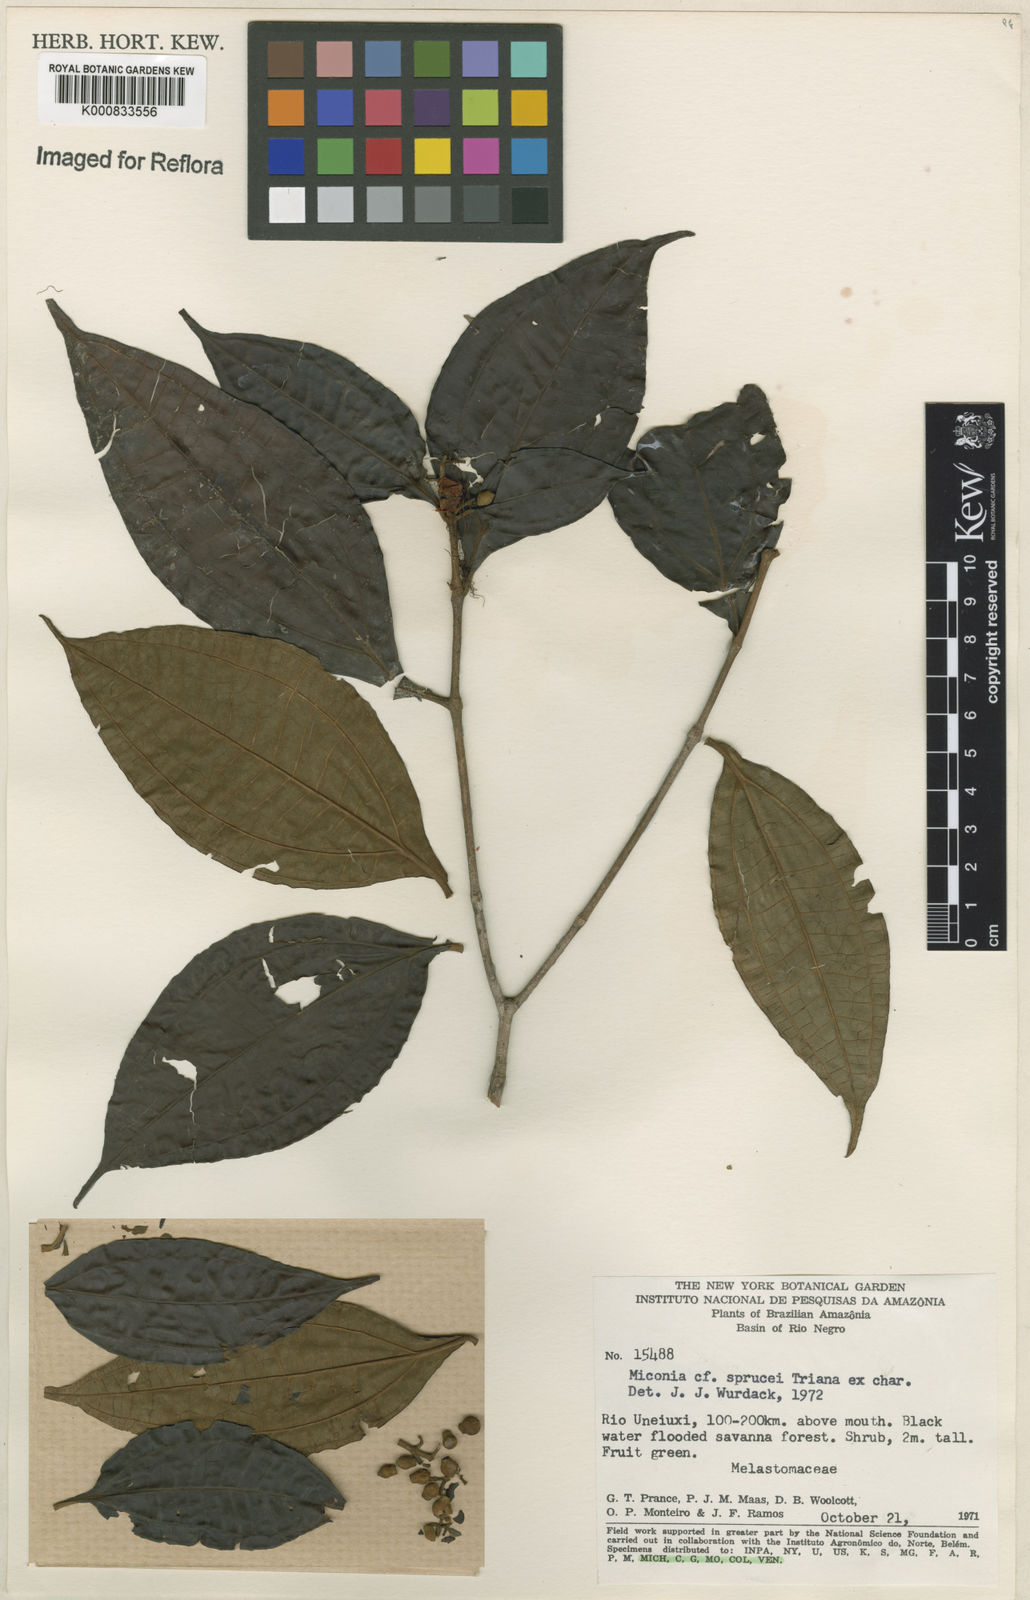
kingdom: Plantae
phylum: Tracheophyta
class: Magnoliopsida
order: Myrtales
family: Melastomataceae
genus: Miconia
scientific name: Miconia sprucei
